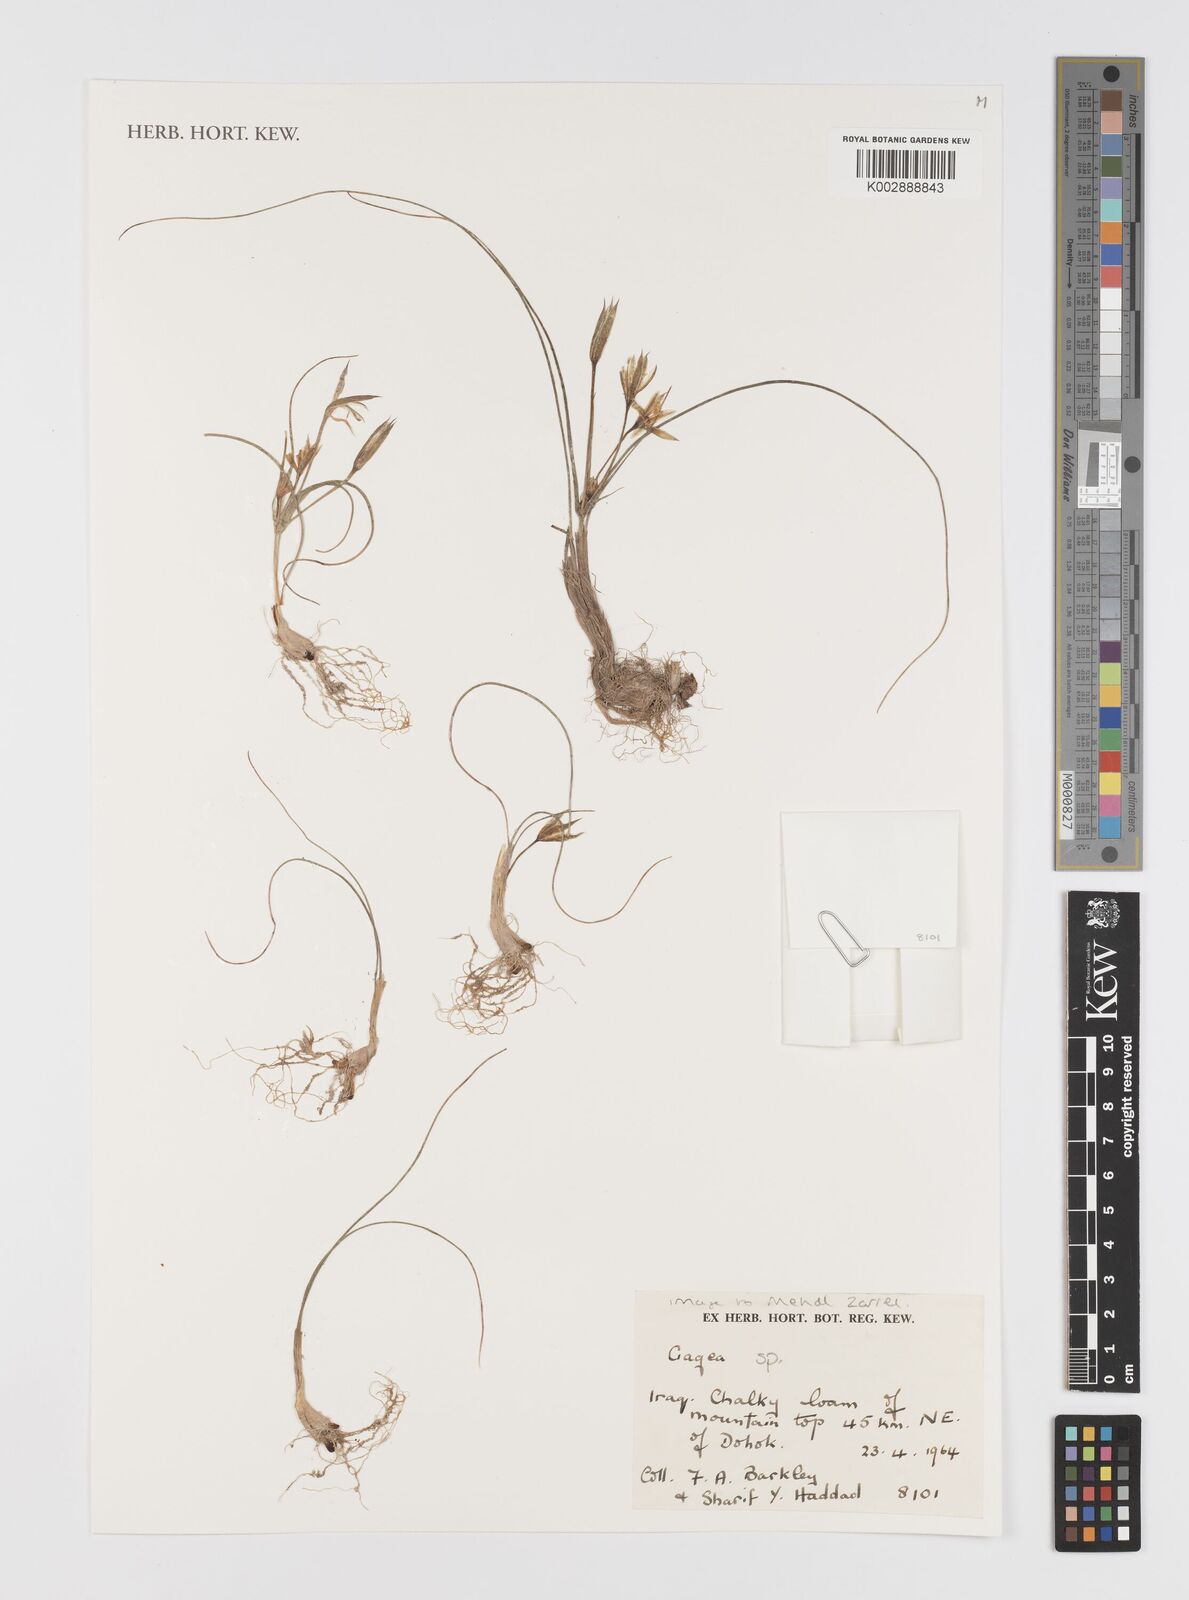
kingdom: Plantae
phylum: Tracheophyta
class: Liliopsida
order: Liliales
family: Liliaceae
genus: Gagea
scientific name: Gagea
